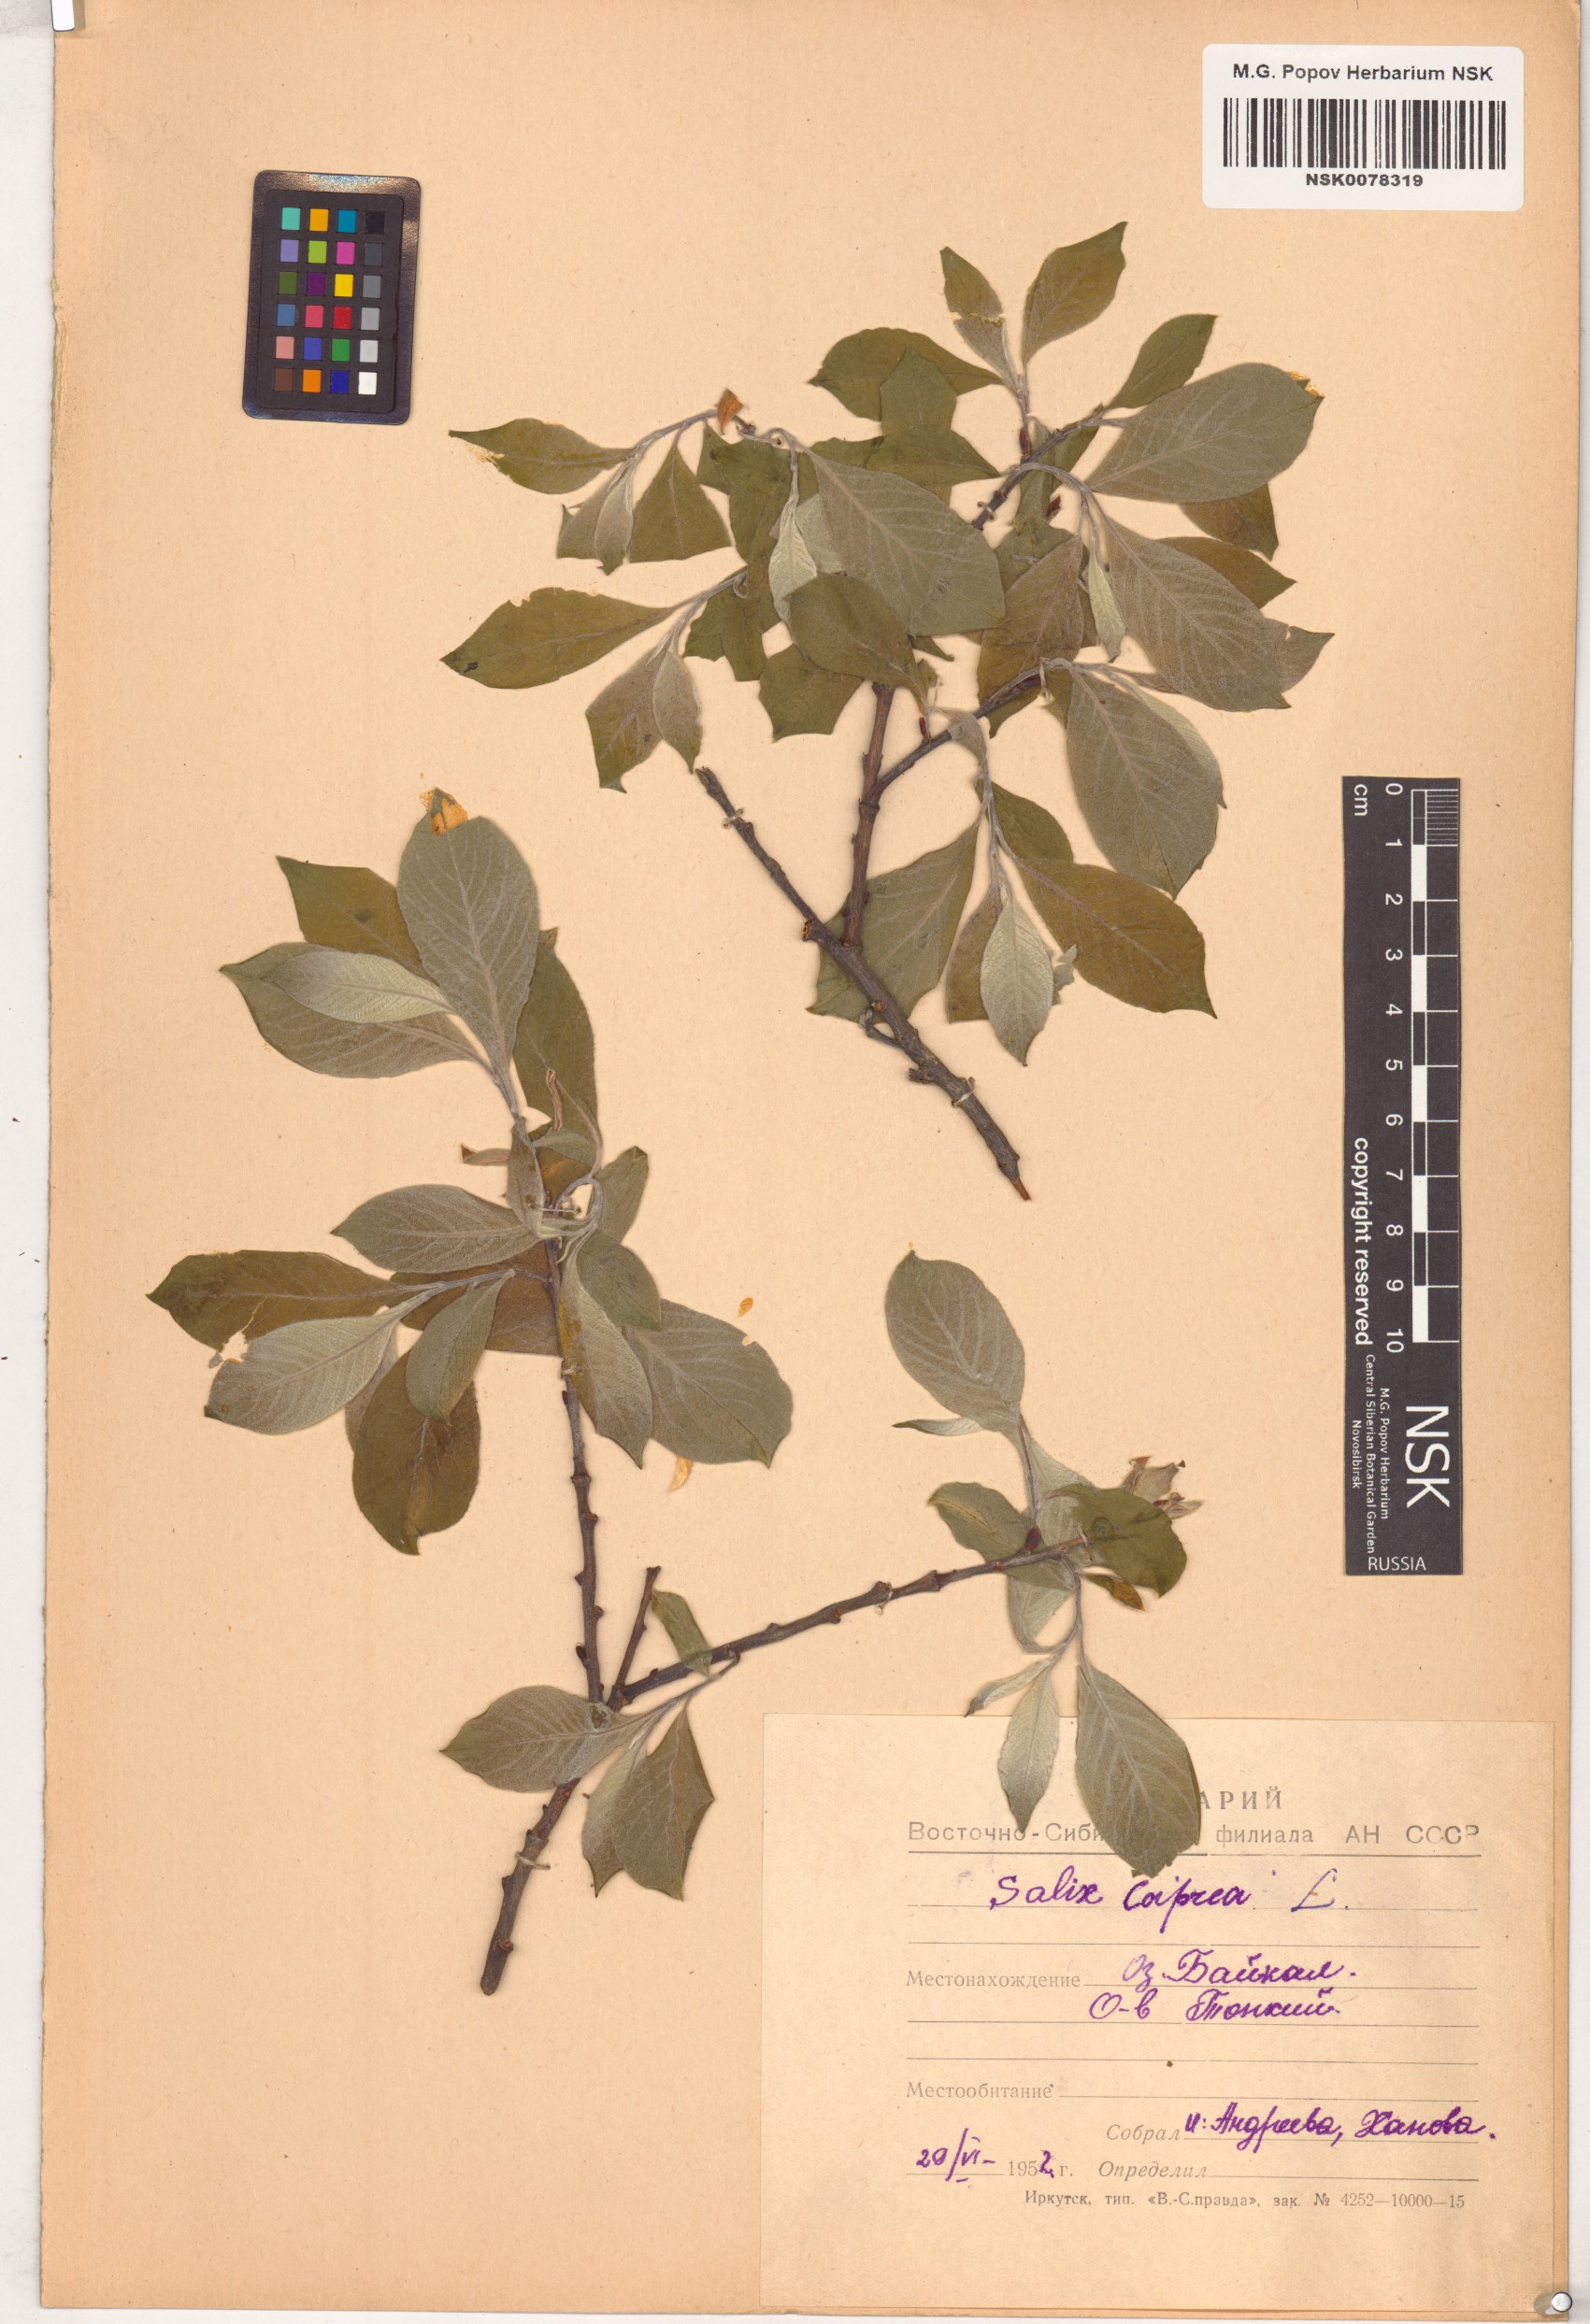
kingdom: Plantae
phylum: Tracheophyta
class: Magnoliopsida
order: Malpighiales
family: Salicaceae
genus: Salix
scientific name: Salix caprea
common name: Goat willow
